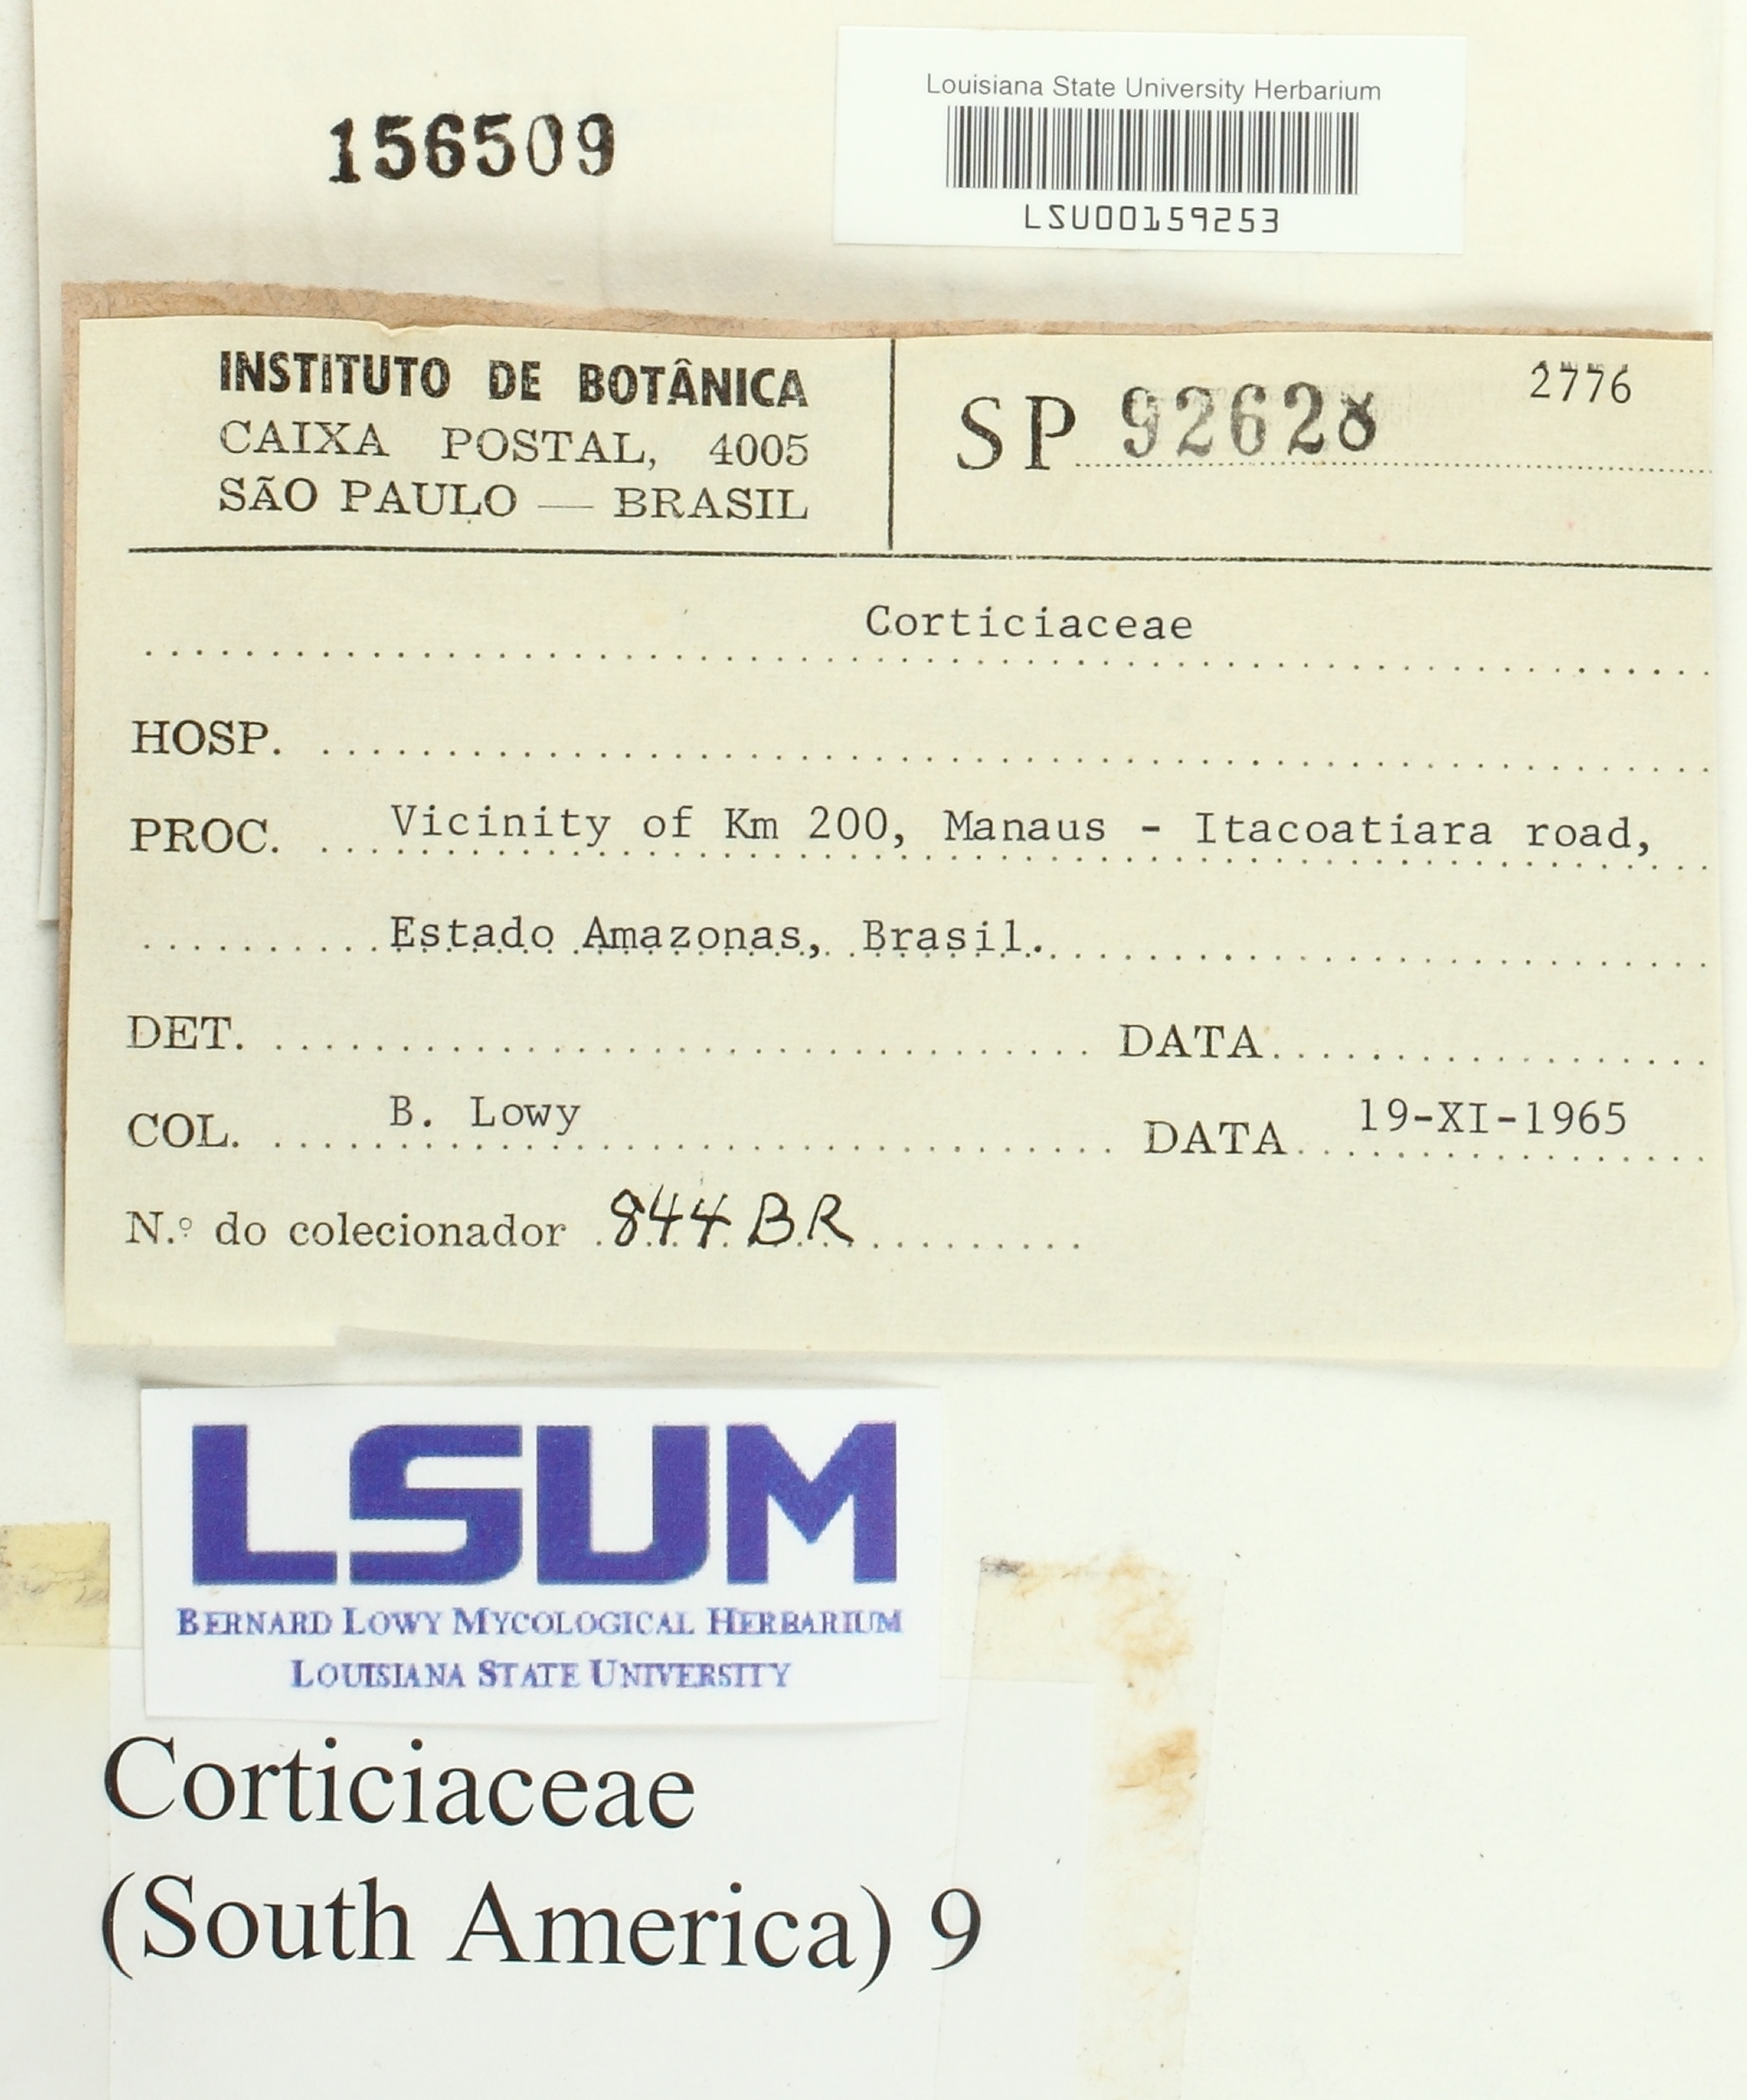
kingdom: Fungi
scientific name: Fungi
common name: Fungi
